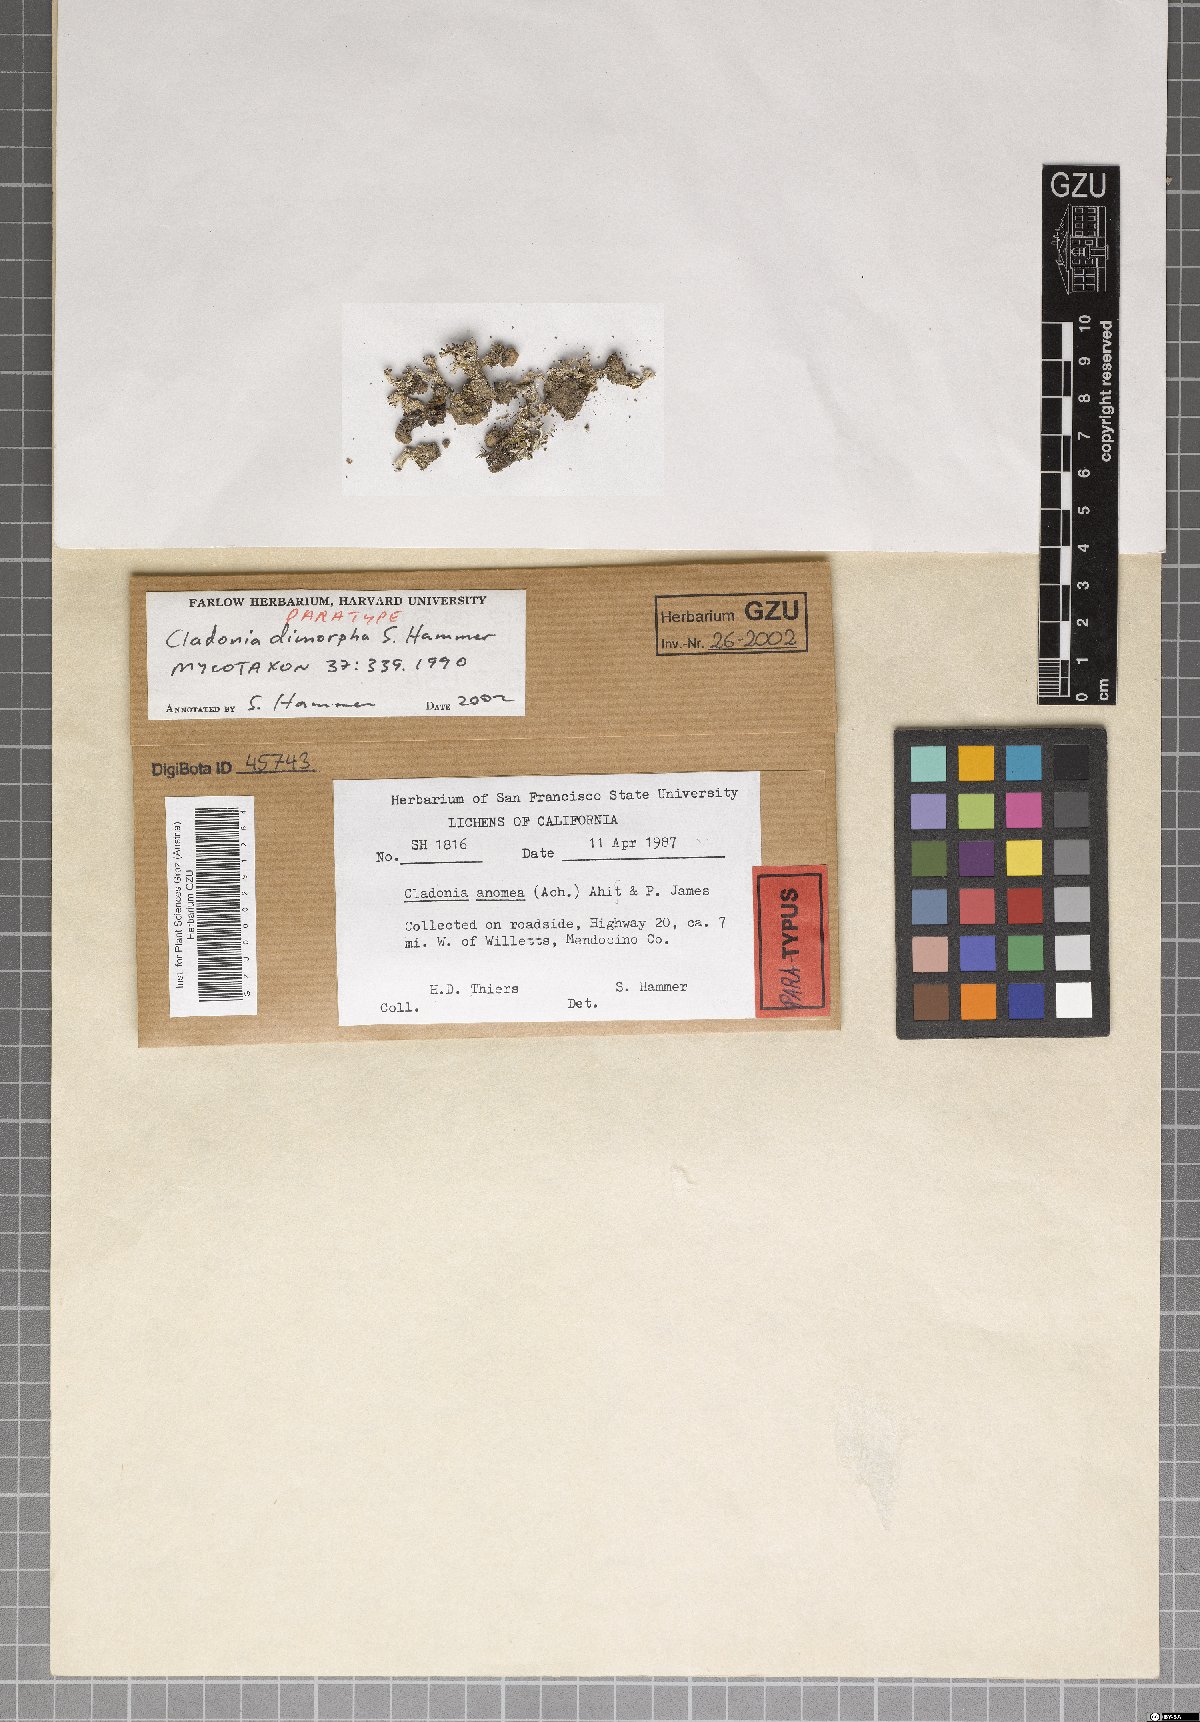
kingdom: Plantae
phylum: Marchantiophyta
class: Marchantiopsida
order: Marchantiales
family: Monocleaceae
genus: Monoclea
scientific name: Monoclea
